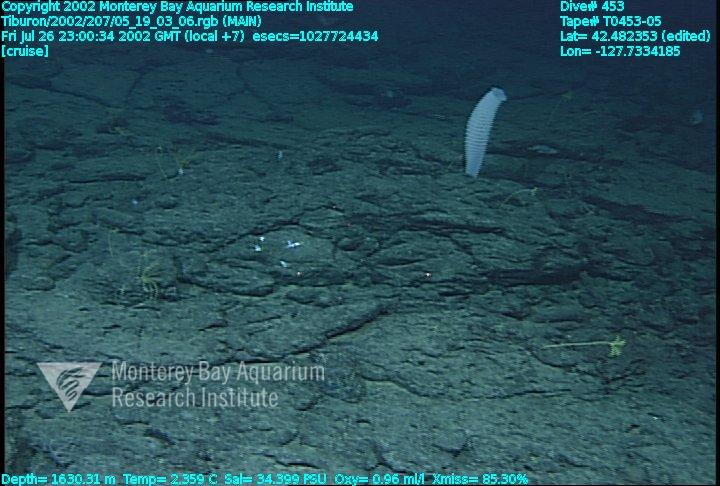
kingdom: Animalia
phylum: Porifera
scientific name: Porifera
